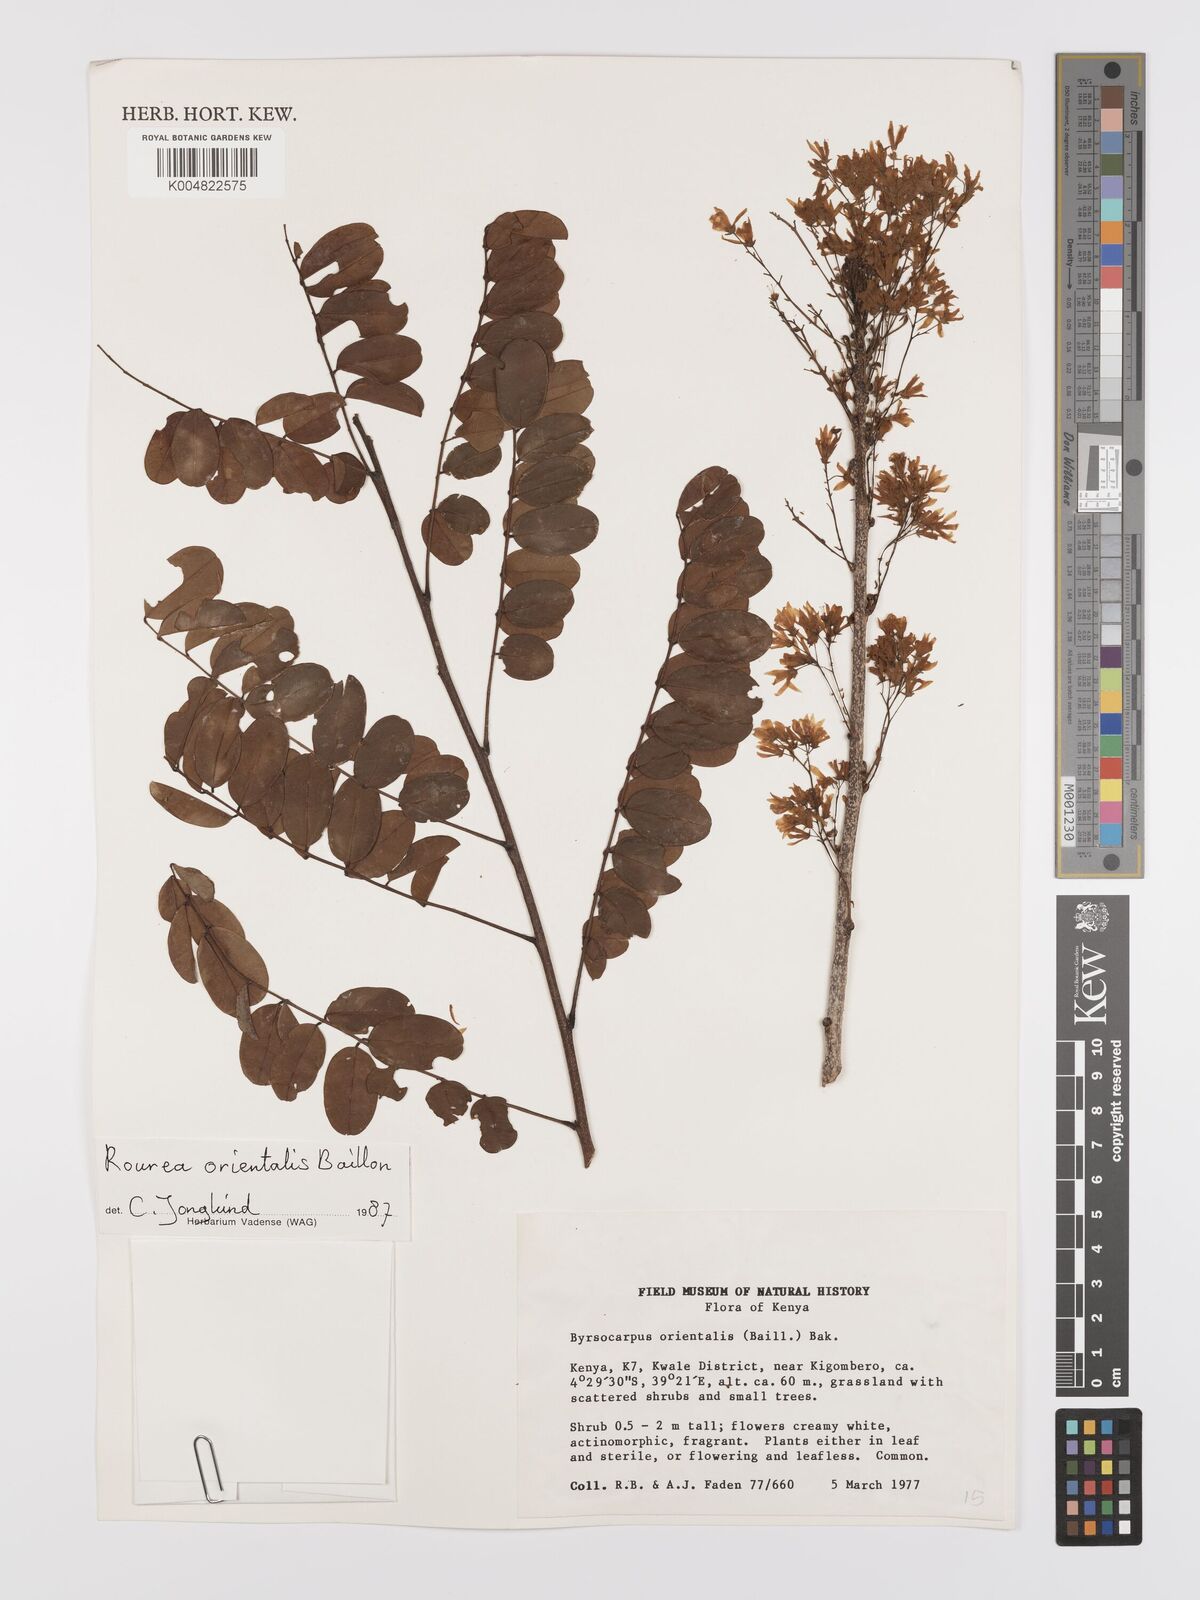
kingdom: Plantae
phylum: Tracheophyta
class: Magnoliopsida
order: Oxalidales
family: Connaraceae
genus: Rourea
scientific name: Rourea orientalis
